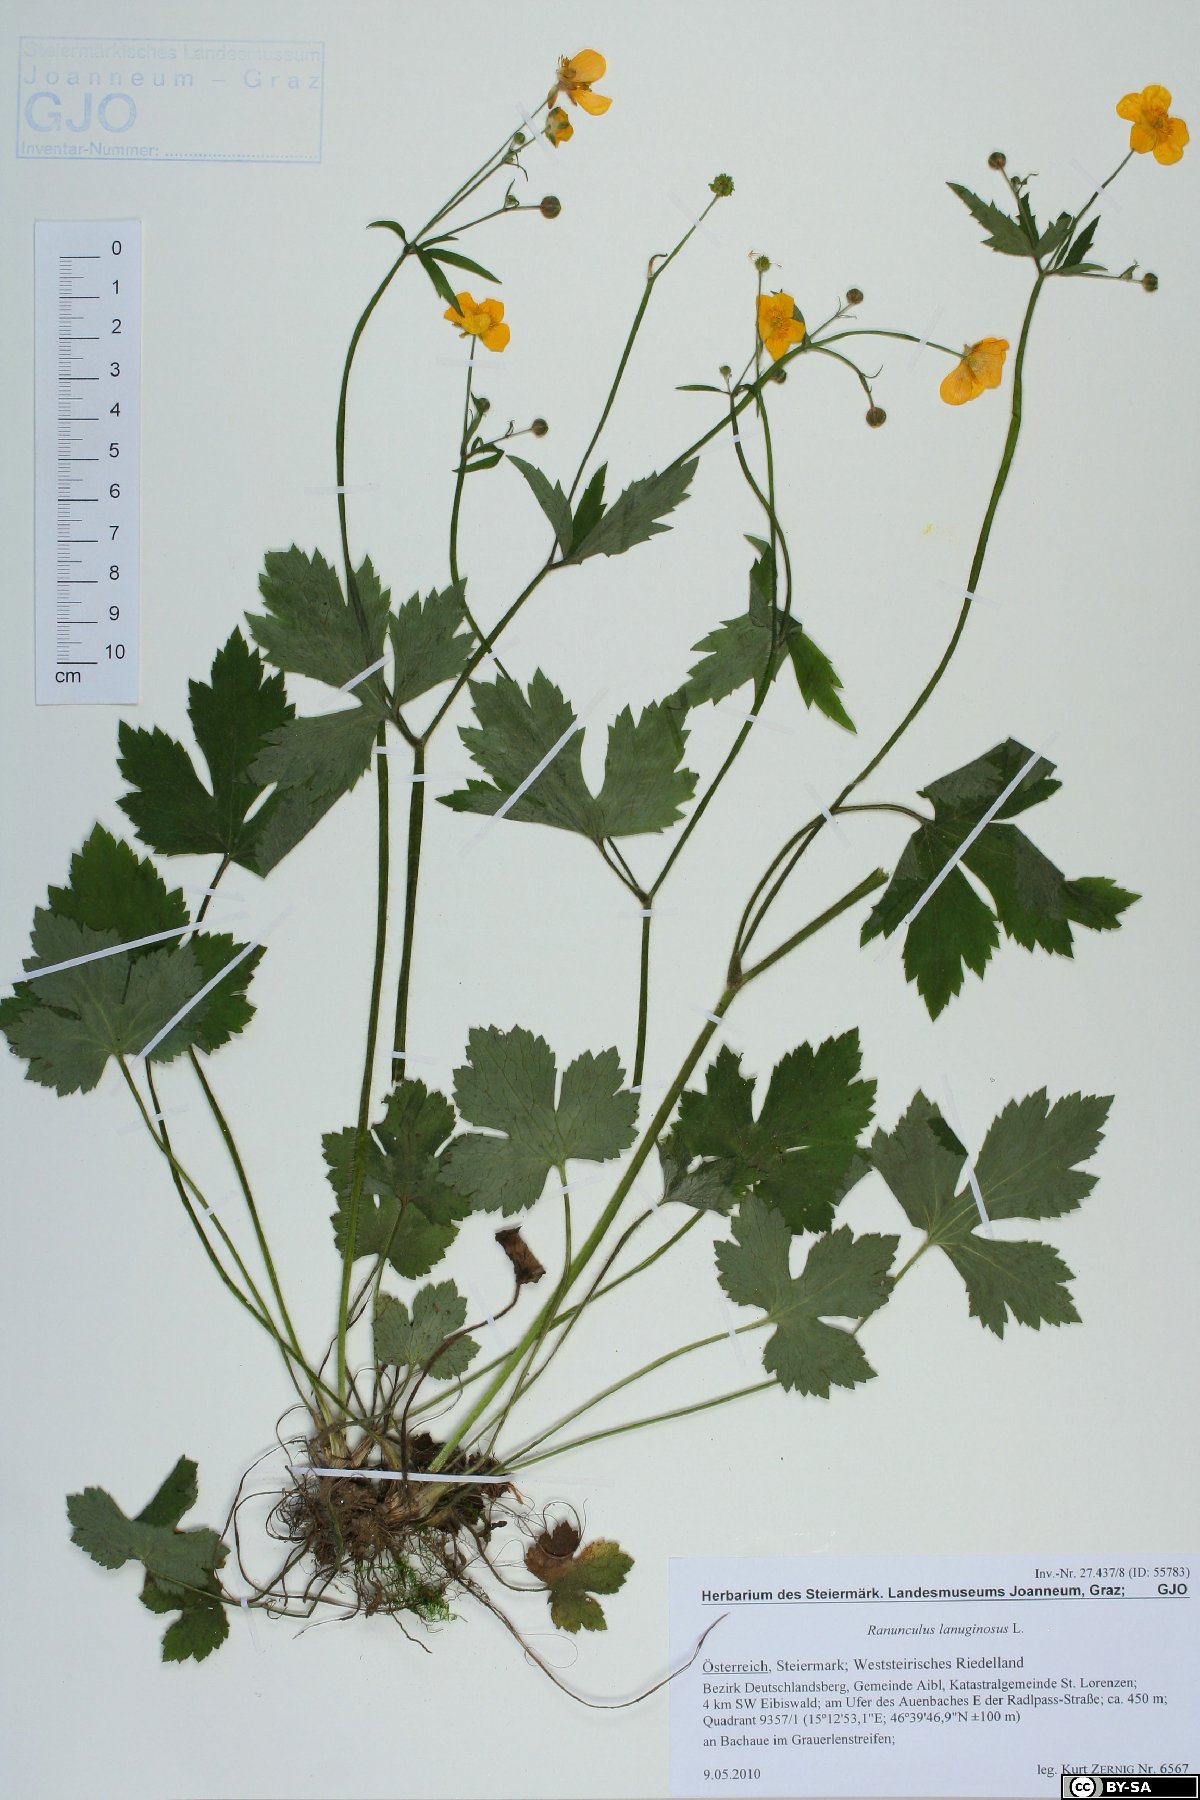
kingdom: Plantae
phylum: Tracheophyta
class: Magnoliopsida
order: Ranunculales
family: Ranunculaceae
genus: Ranunculus
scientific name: Ranunculus lanuginosus
